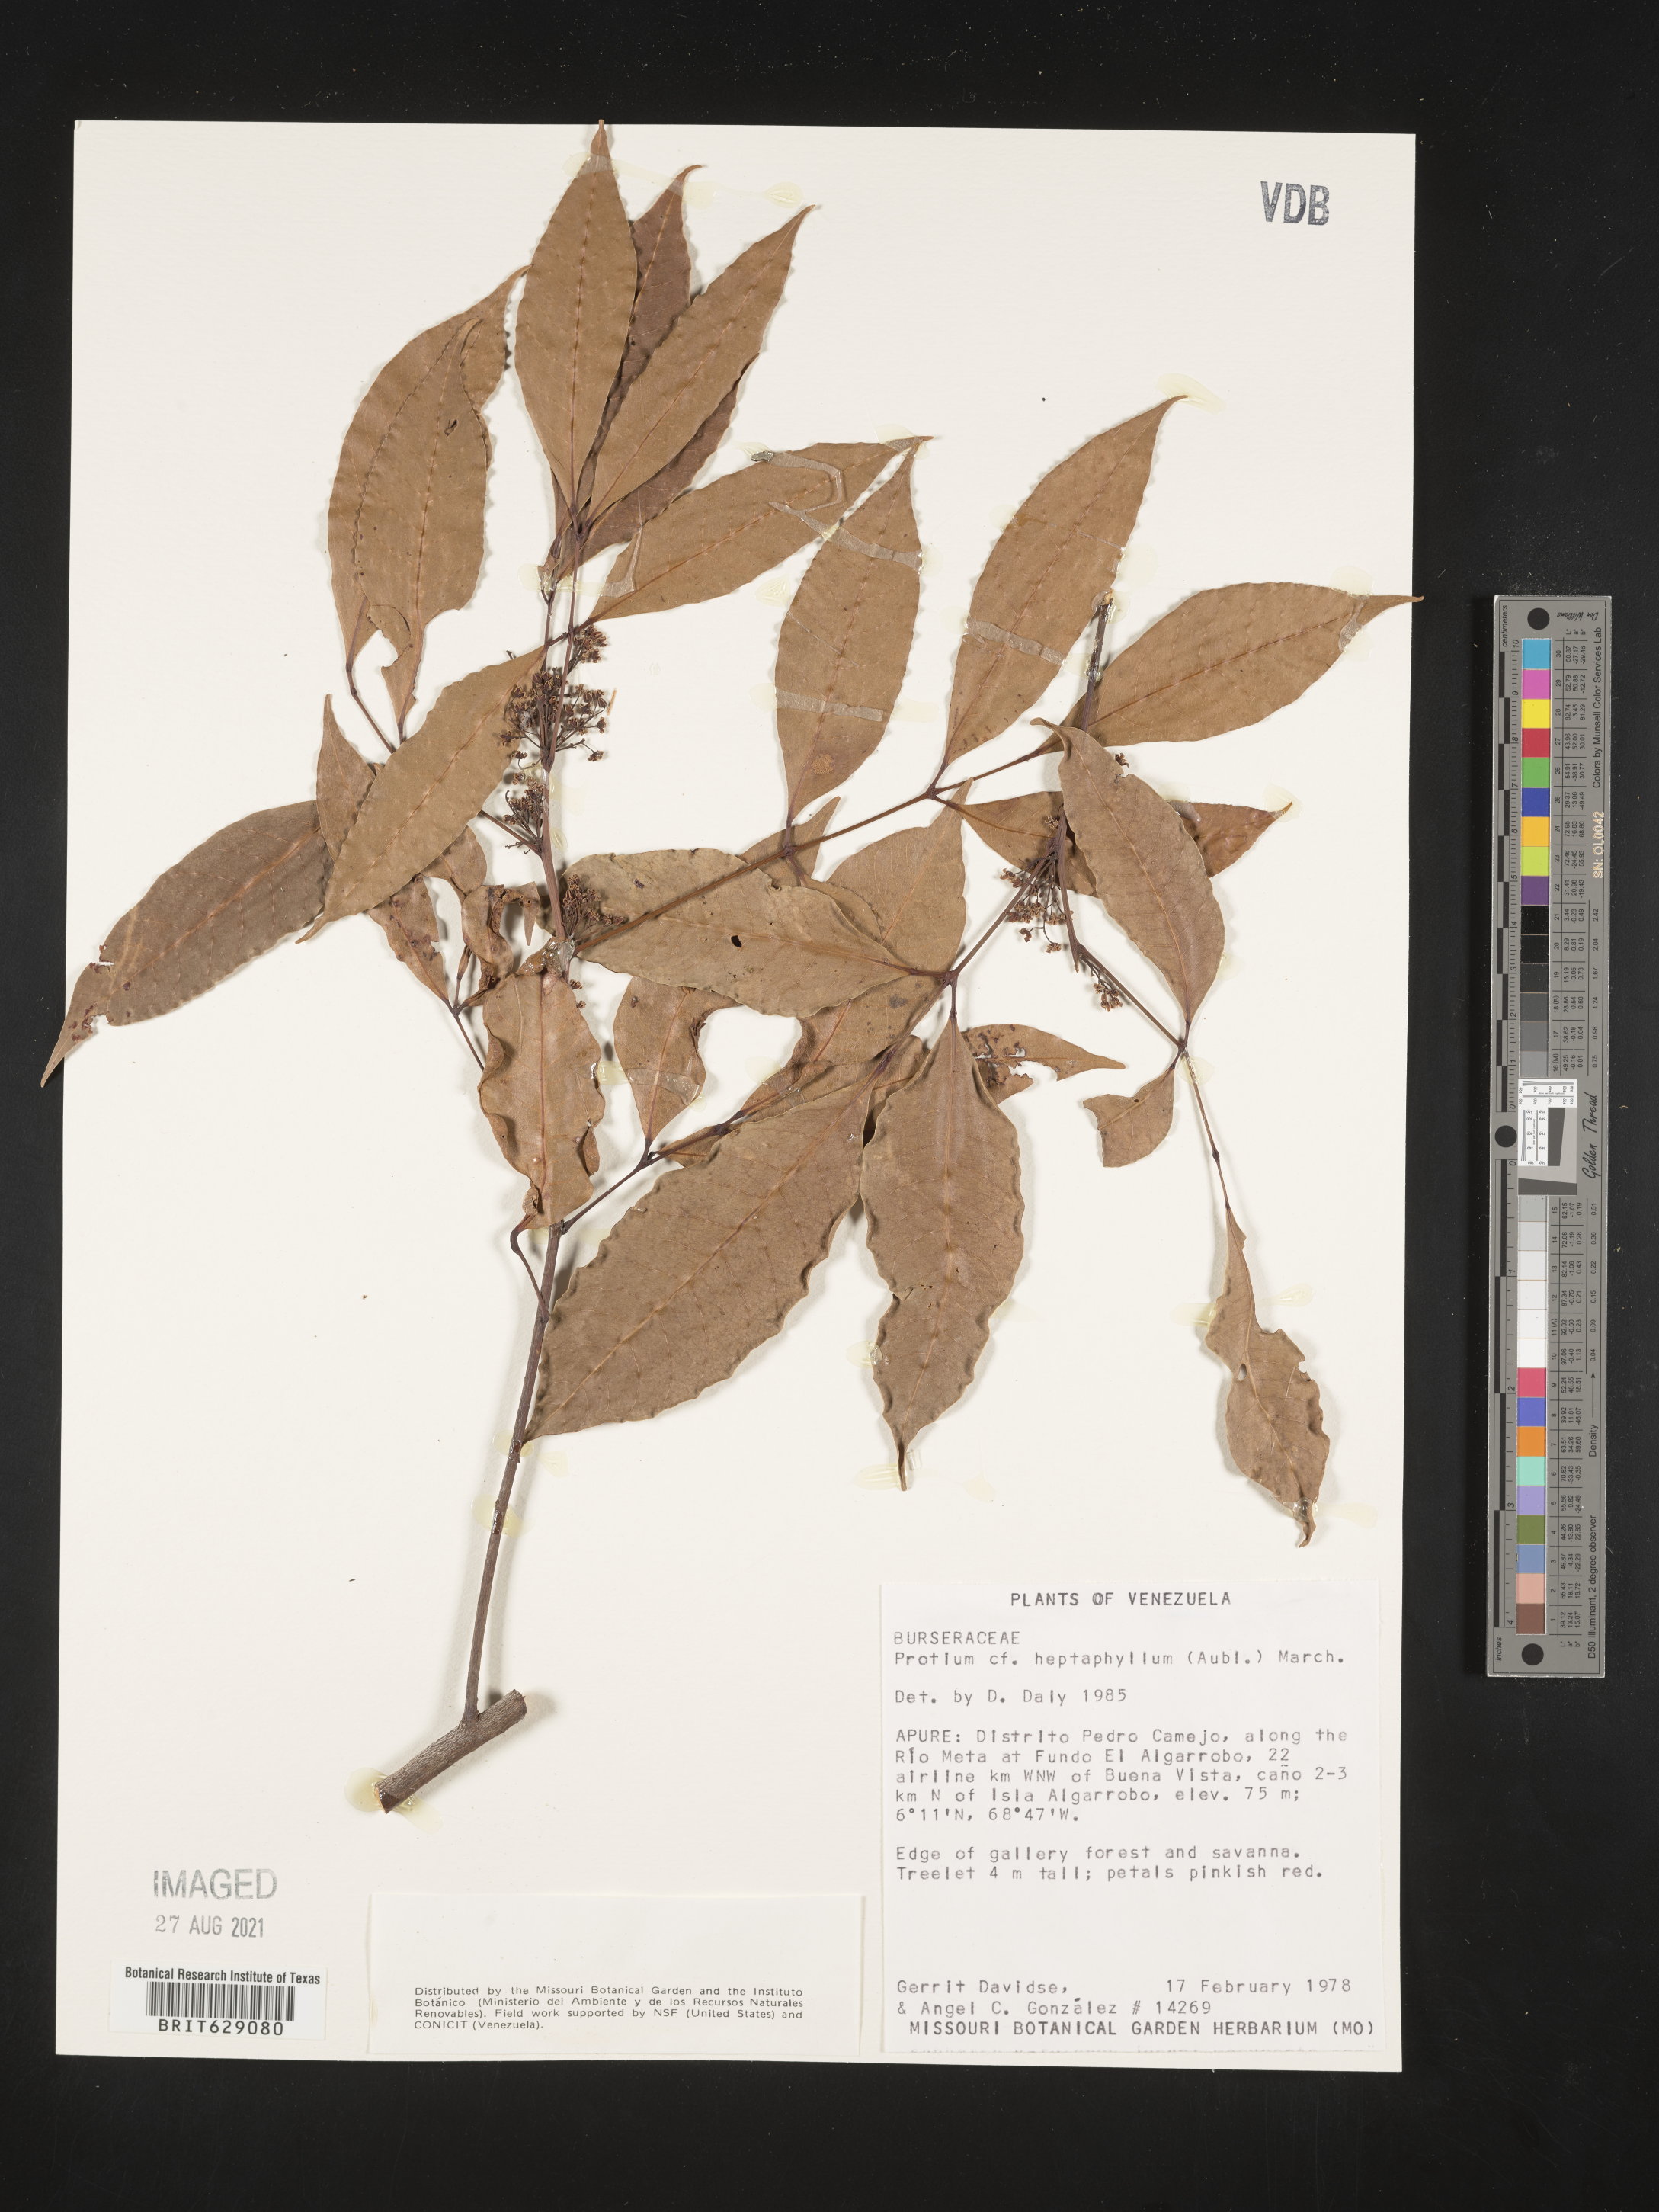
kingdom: Plantae
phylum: Tracheophyta
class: Magnoliopsida
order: Sapindales
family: Burseraceae
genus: Protium
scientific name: Protium heptaphyllum
